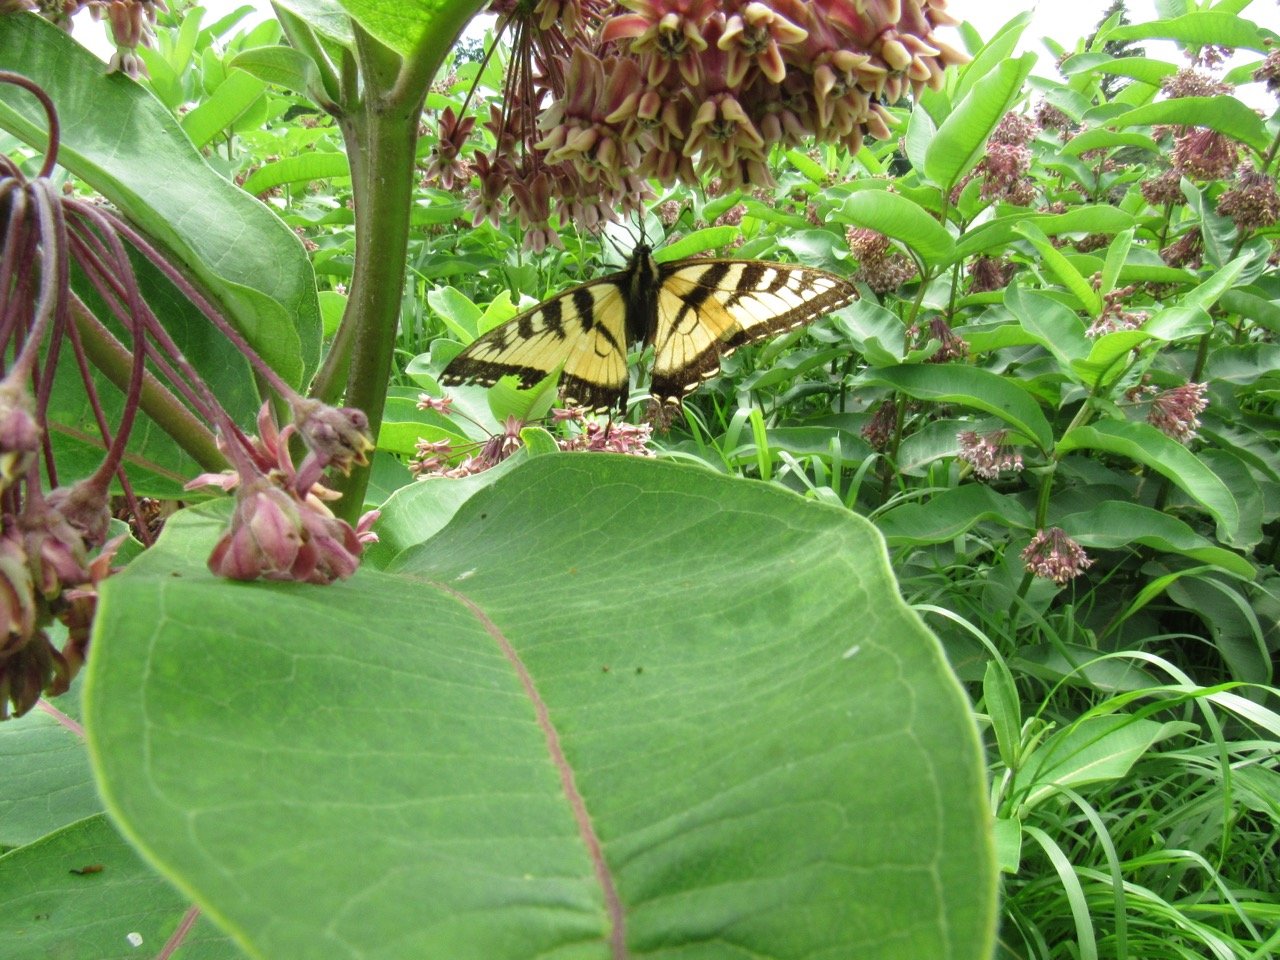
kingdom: Animalia
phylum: Arthropoda
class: Insecta
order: Lepidoptera
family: Papilionidae
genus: Pterourus
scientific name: Pterourus
